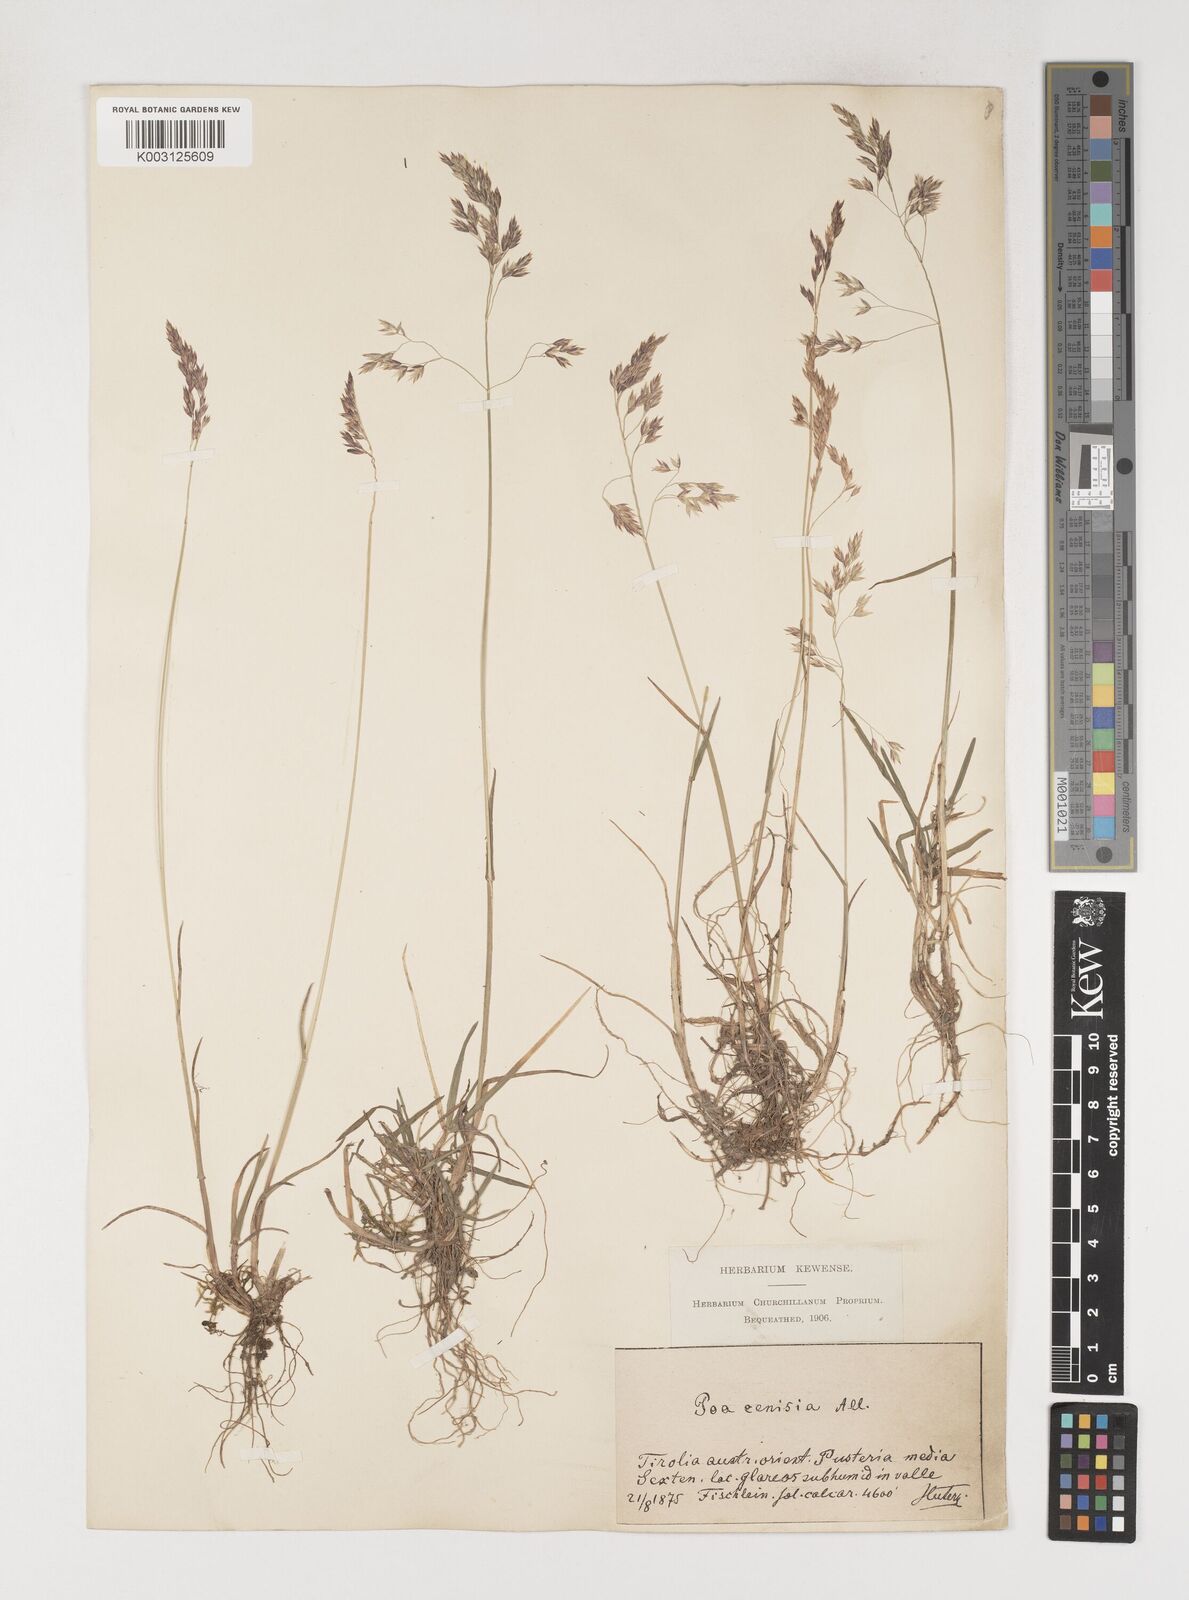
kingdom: Plantae
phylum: Tracheophyta
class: Liliopsida
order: Poales
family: Poaceae
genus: Poa
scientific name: Poa cenisia
